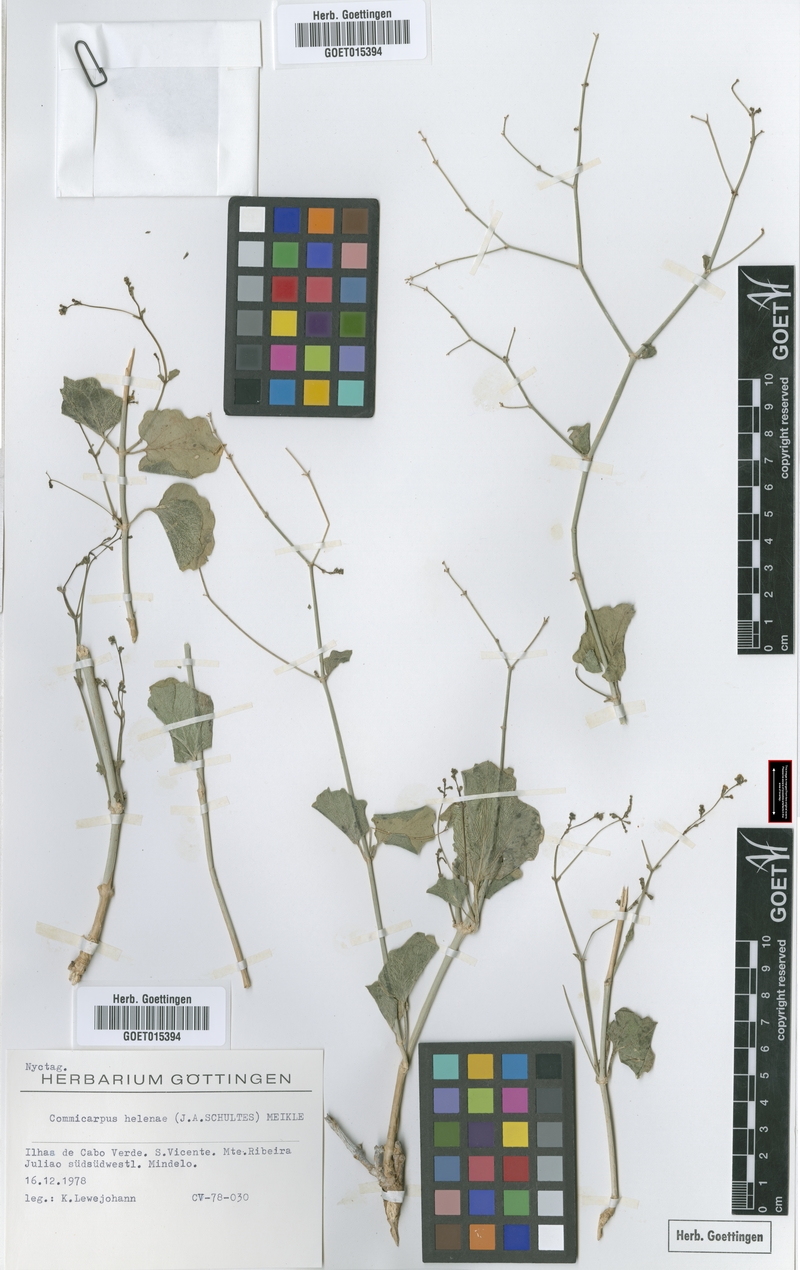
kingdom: Plantae
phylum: Tracheophyta
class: Magnoliopsida
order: Caryophyllales
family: Nyctaginaceae
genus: Commicarpus
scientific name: Commicarpus helenae
